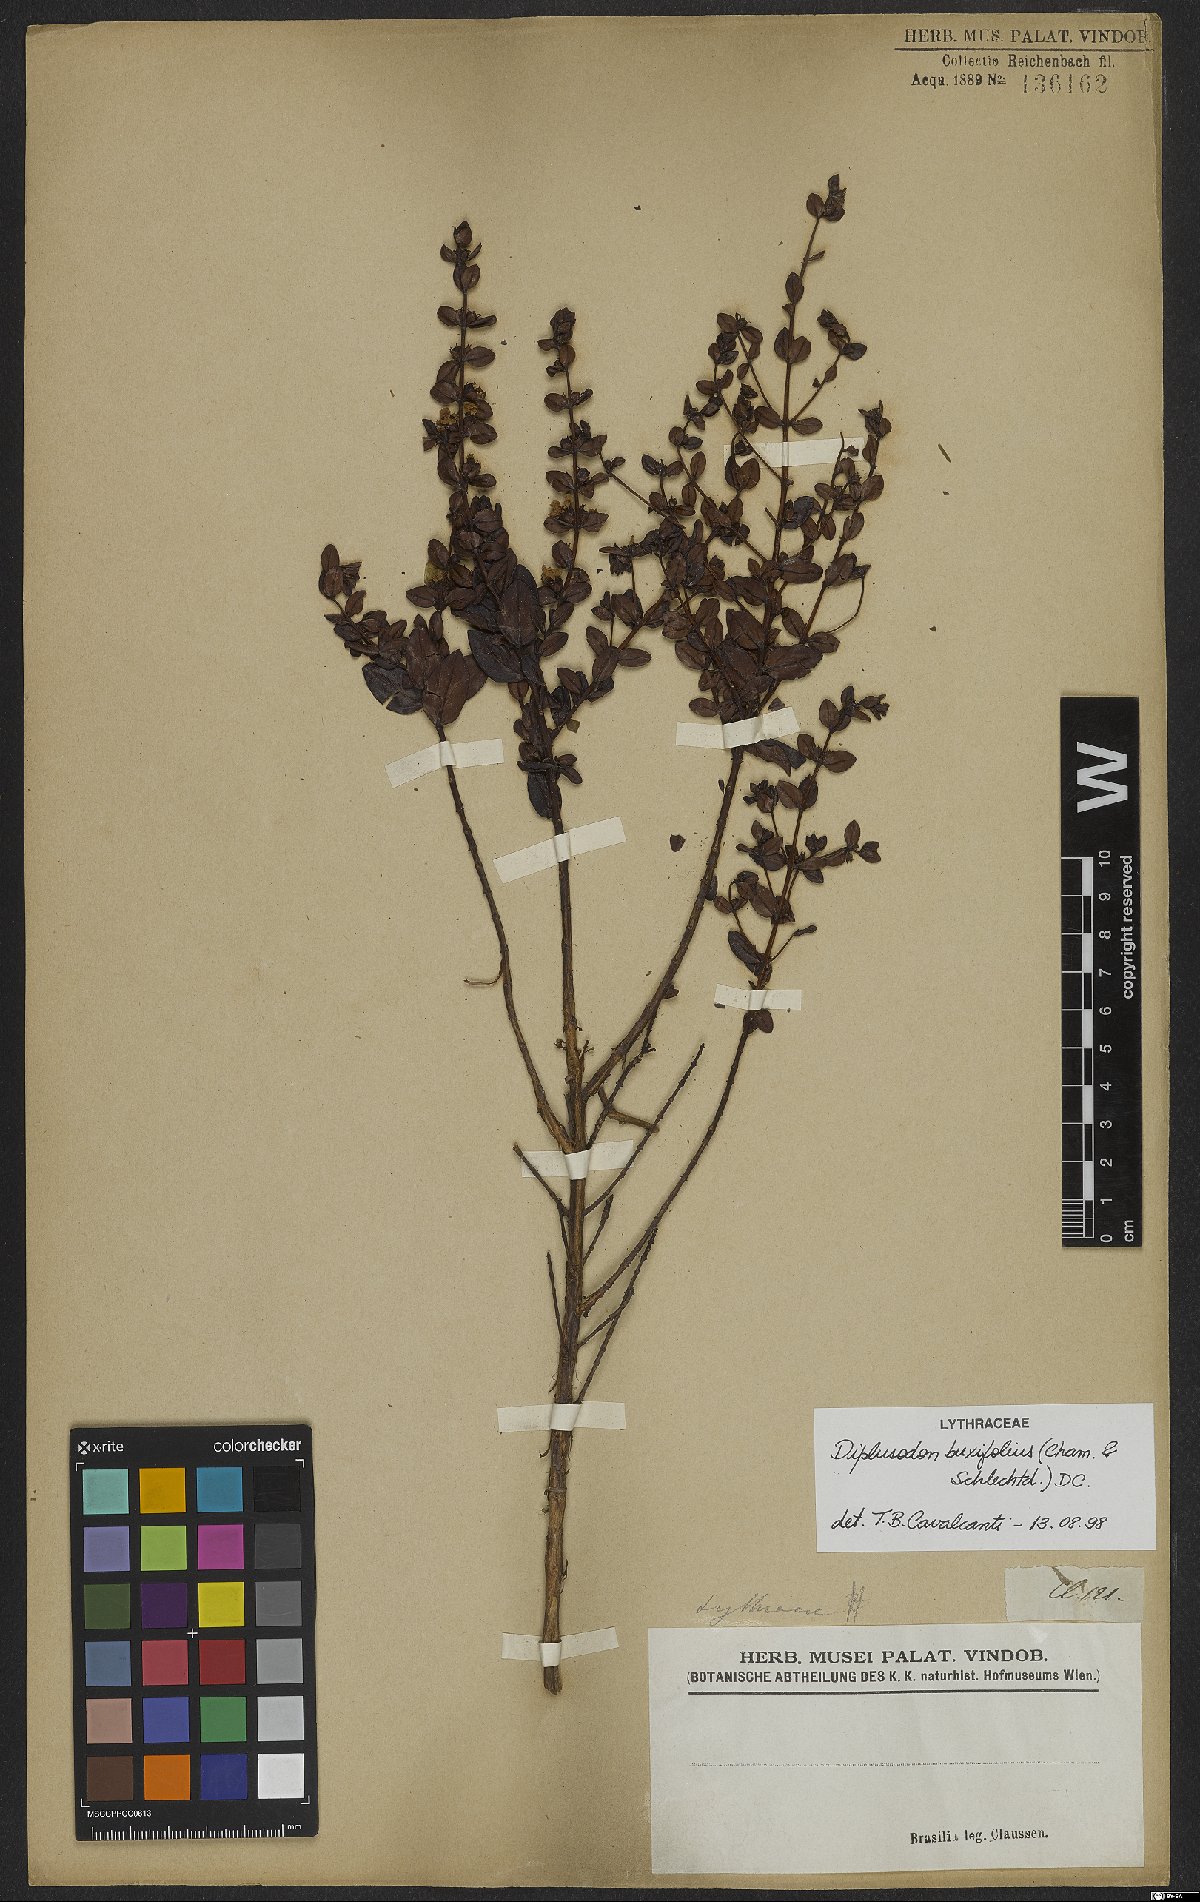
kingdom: Plantae
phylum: Tracheophyta
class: Magnoliopsida
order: Myrtales
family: Lythraceae
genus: Diplusodon
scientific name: Diplusodon buxifolius
